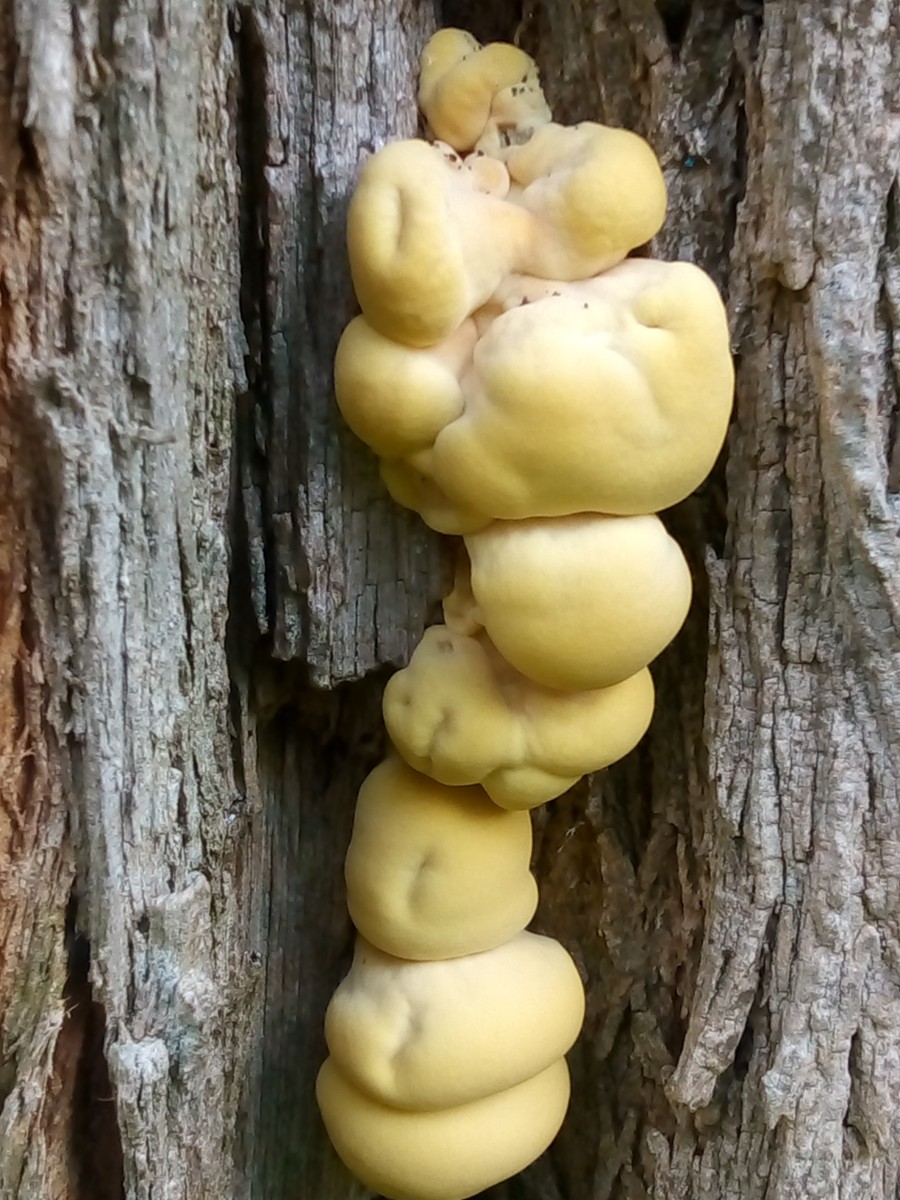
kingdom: Fungi
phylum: Basidiomycota
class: Agaricomycetes
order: Polyporales
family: Laetiporaceae
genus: Laetiporus
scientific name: Laetiporus sulphureus
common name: svovlporesvamp
